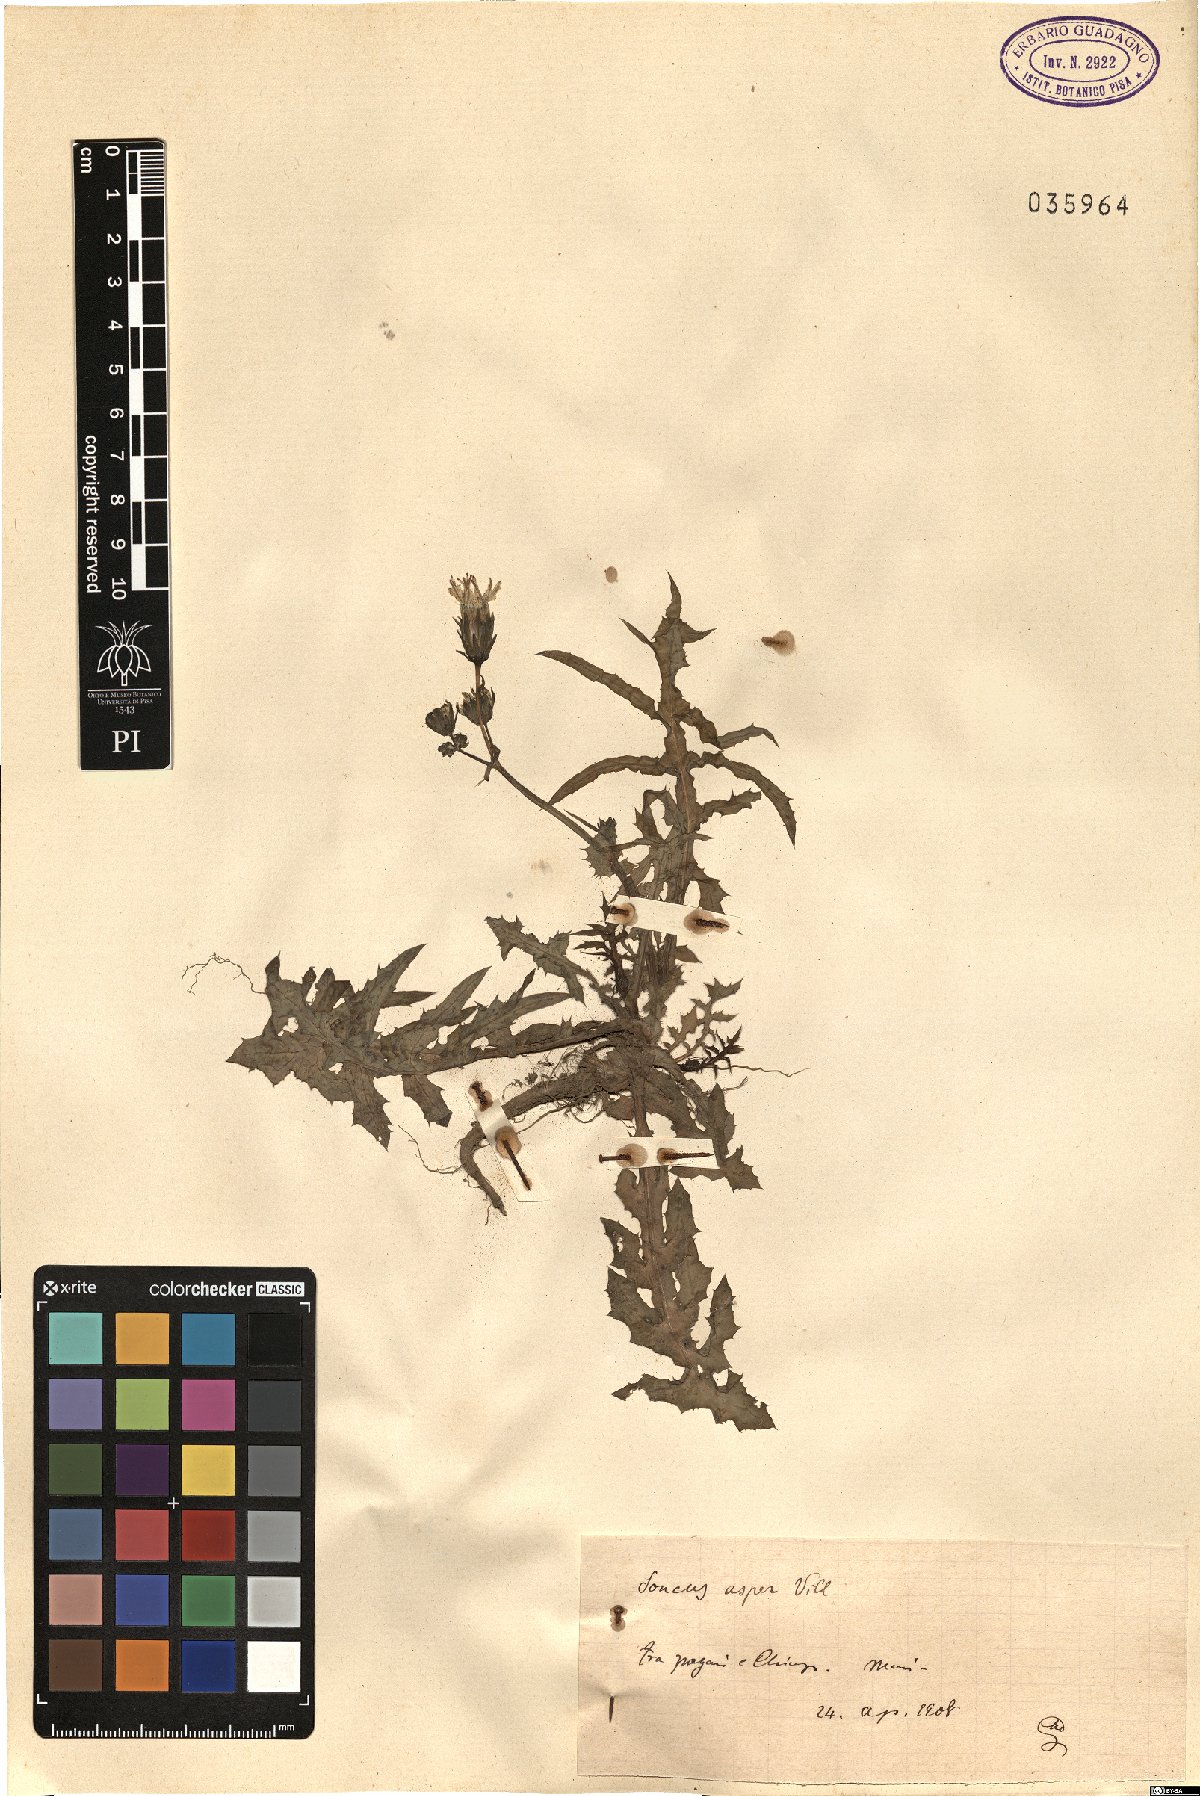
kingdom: Plantae
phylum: Tracheophyta
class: Magnoliopsida
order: Asterales
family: Asteraceae
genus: Sonchus
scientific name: Sonchus asper
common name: Prickly sow-thistle
